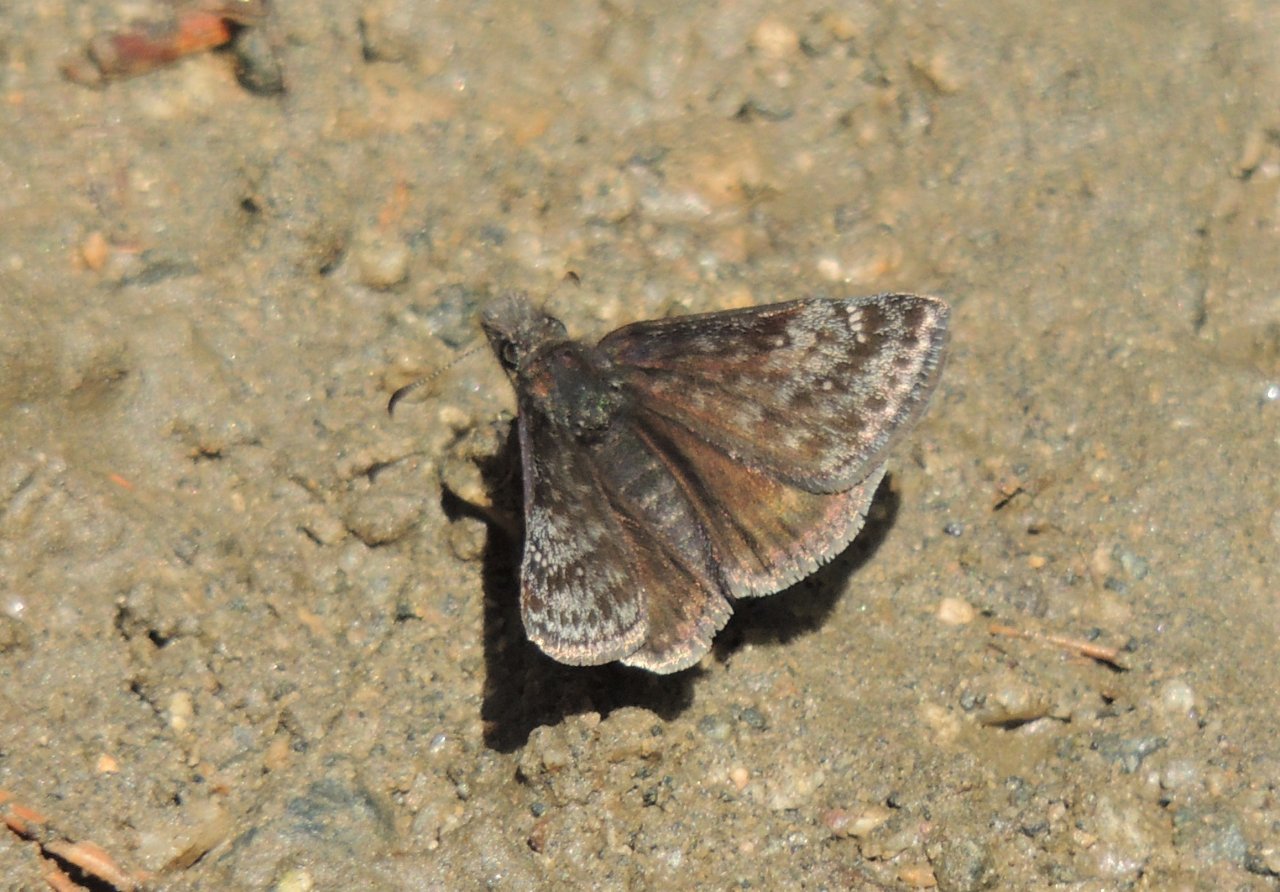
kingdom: Animalia
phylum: Arthropoda
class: Insecta
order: Lepidoptera
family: Hesperiidae
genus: Gesta
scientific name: Gesta
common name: Persius Duskywing
